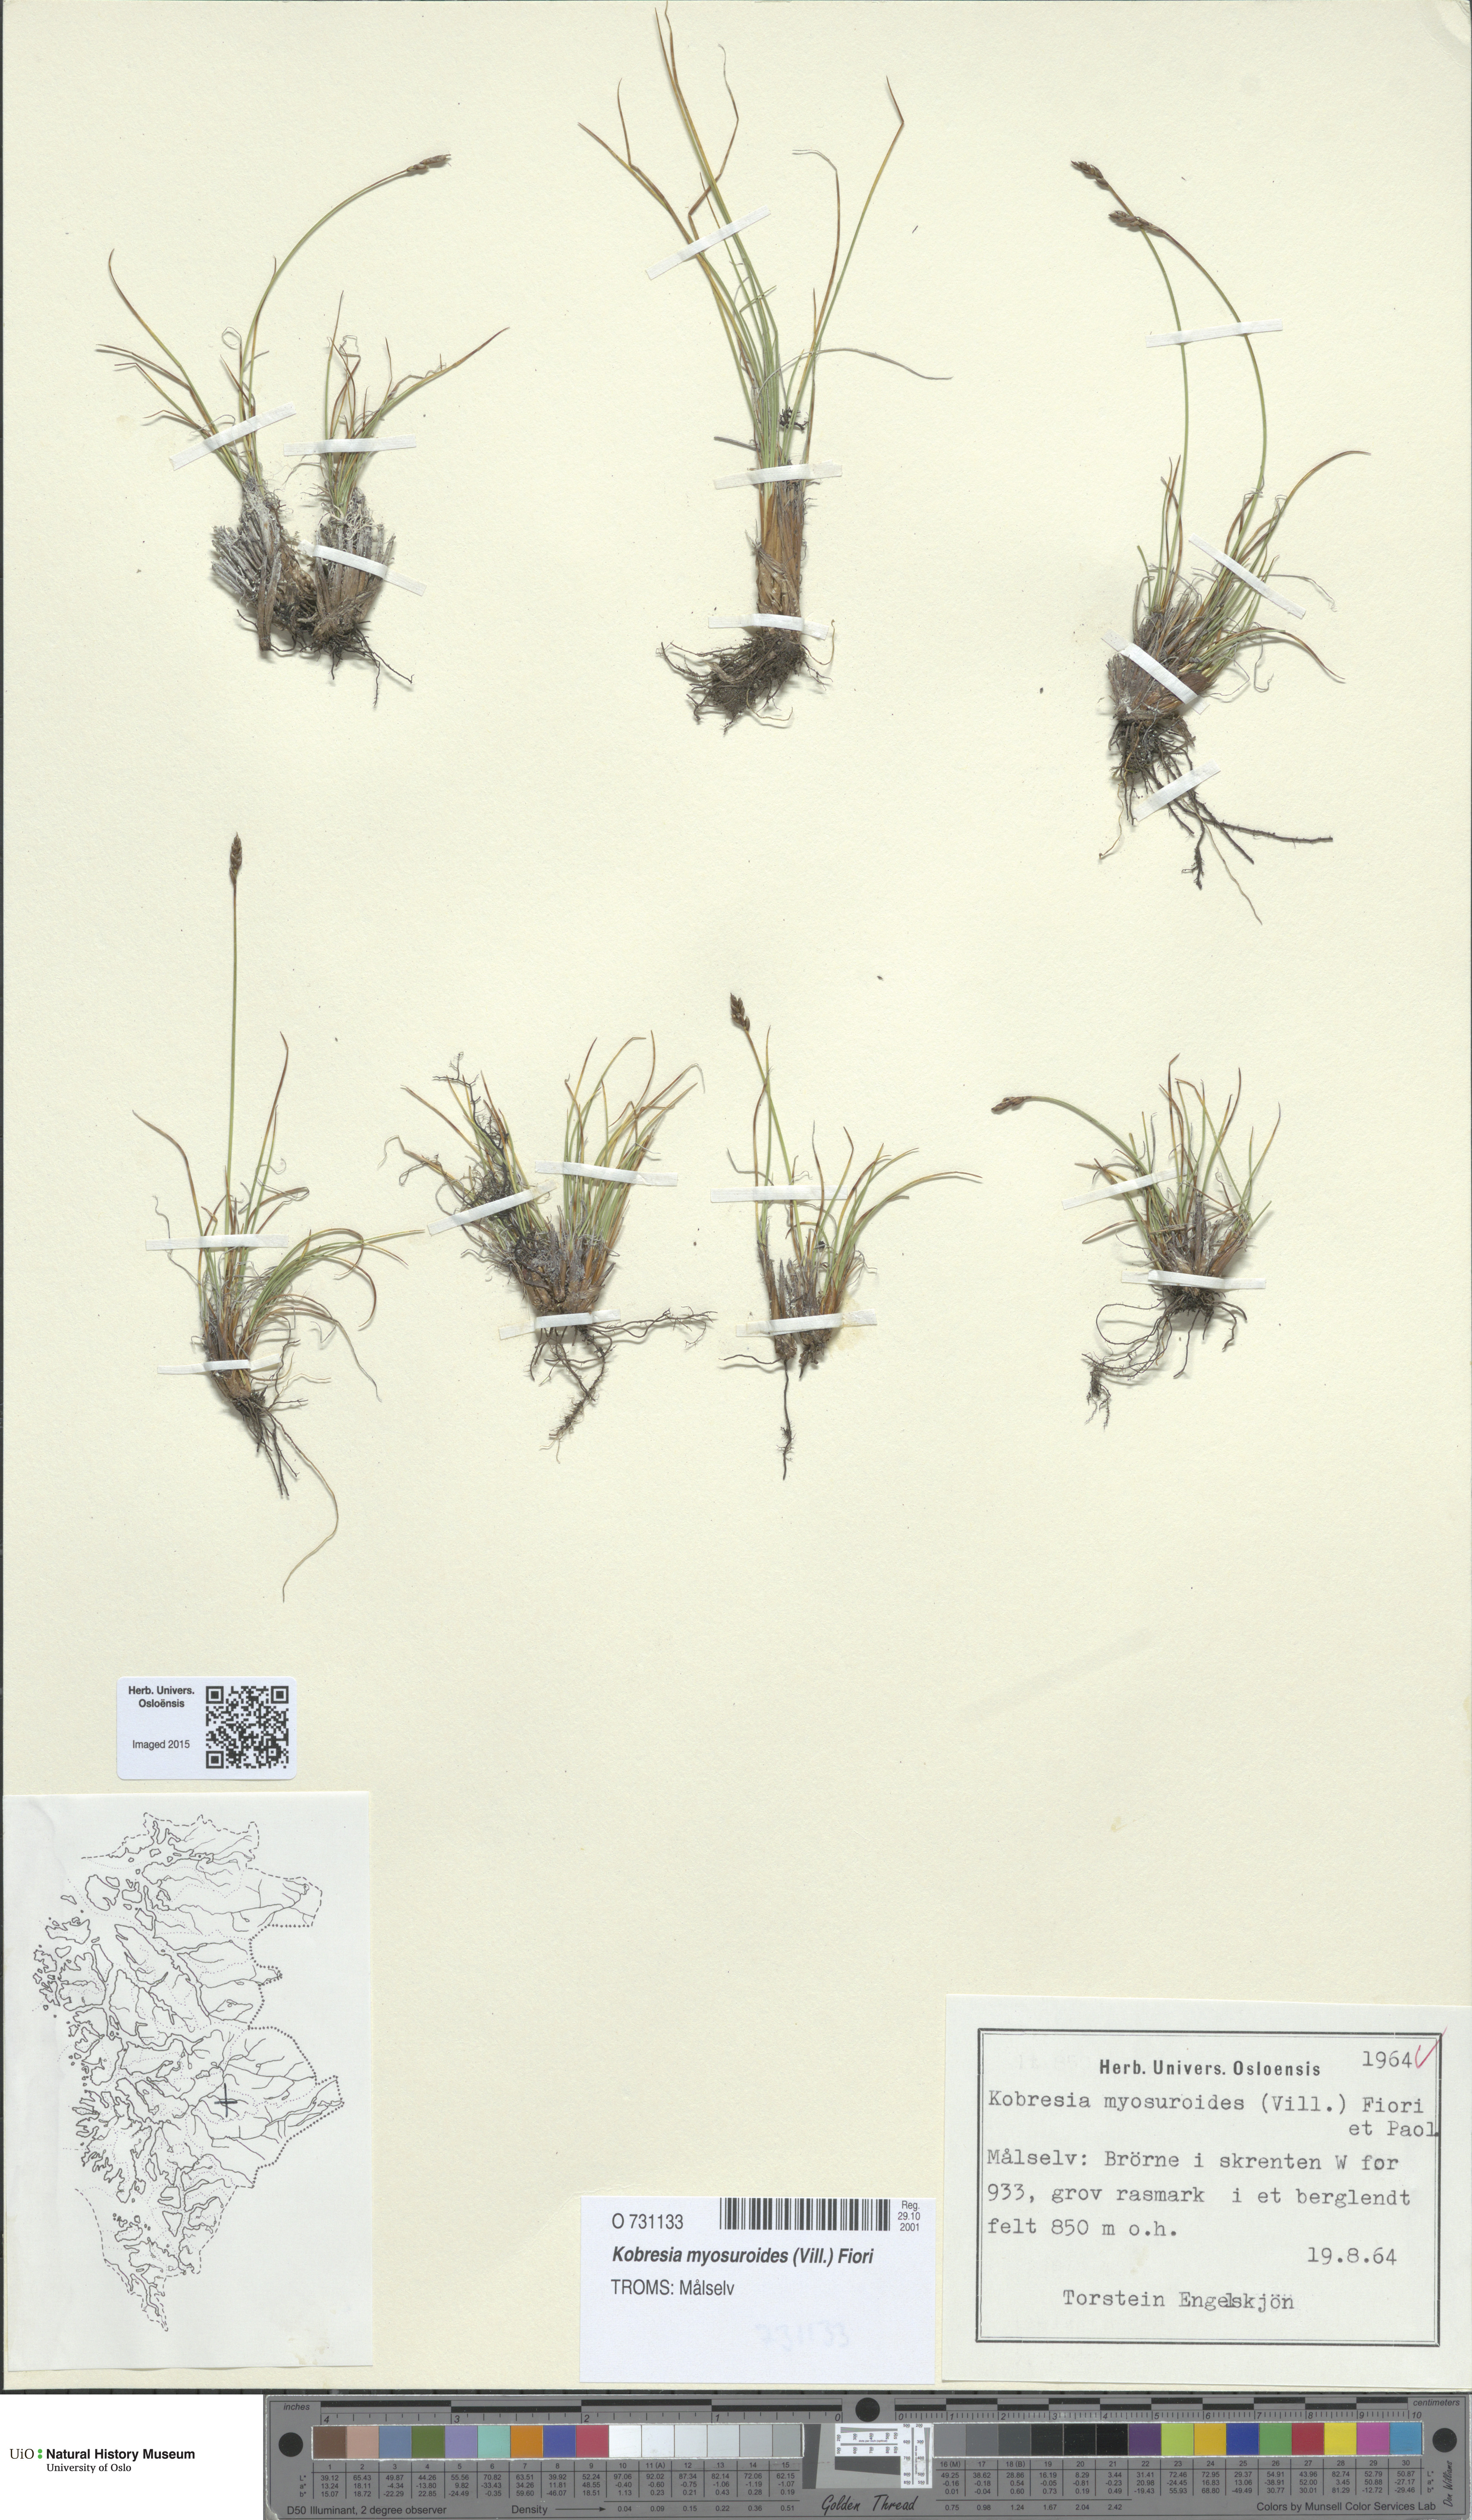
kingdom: Plantae
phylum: Tracheophyta
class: Liliopsida
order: Poales
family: Cyperaceae
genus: Carex
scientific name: Carex myosuroides
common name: Bellard's bog sedge
